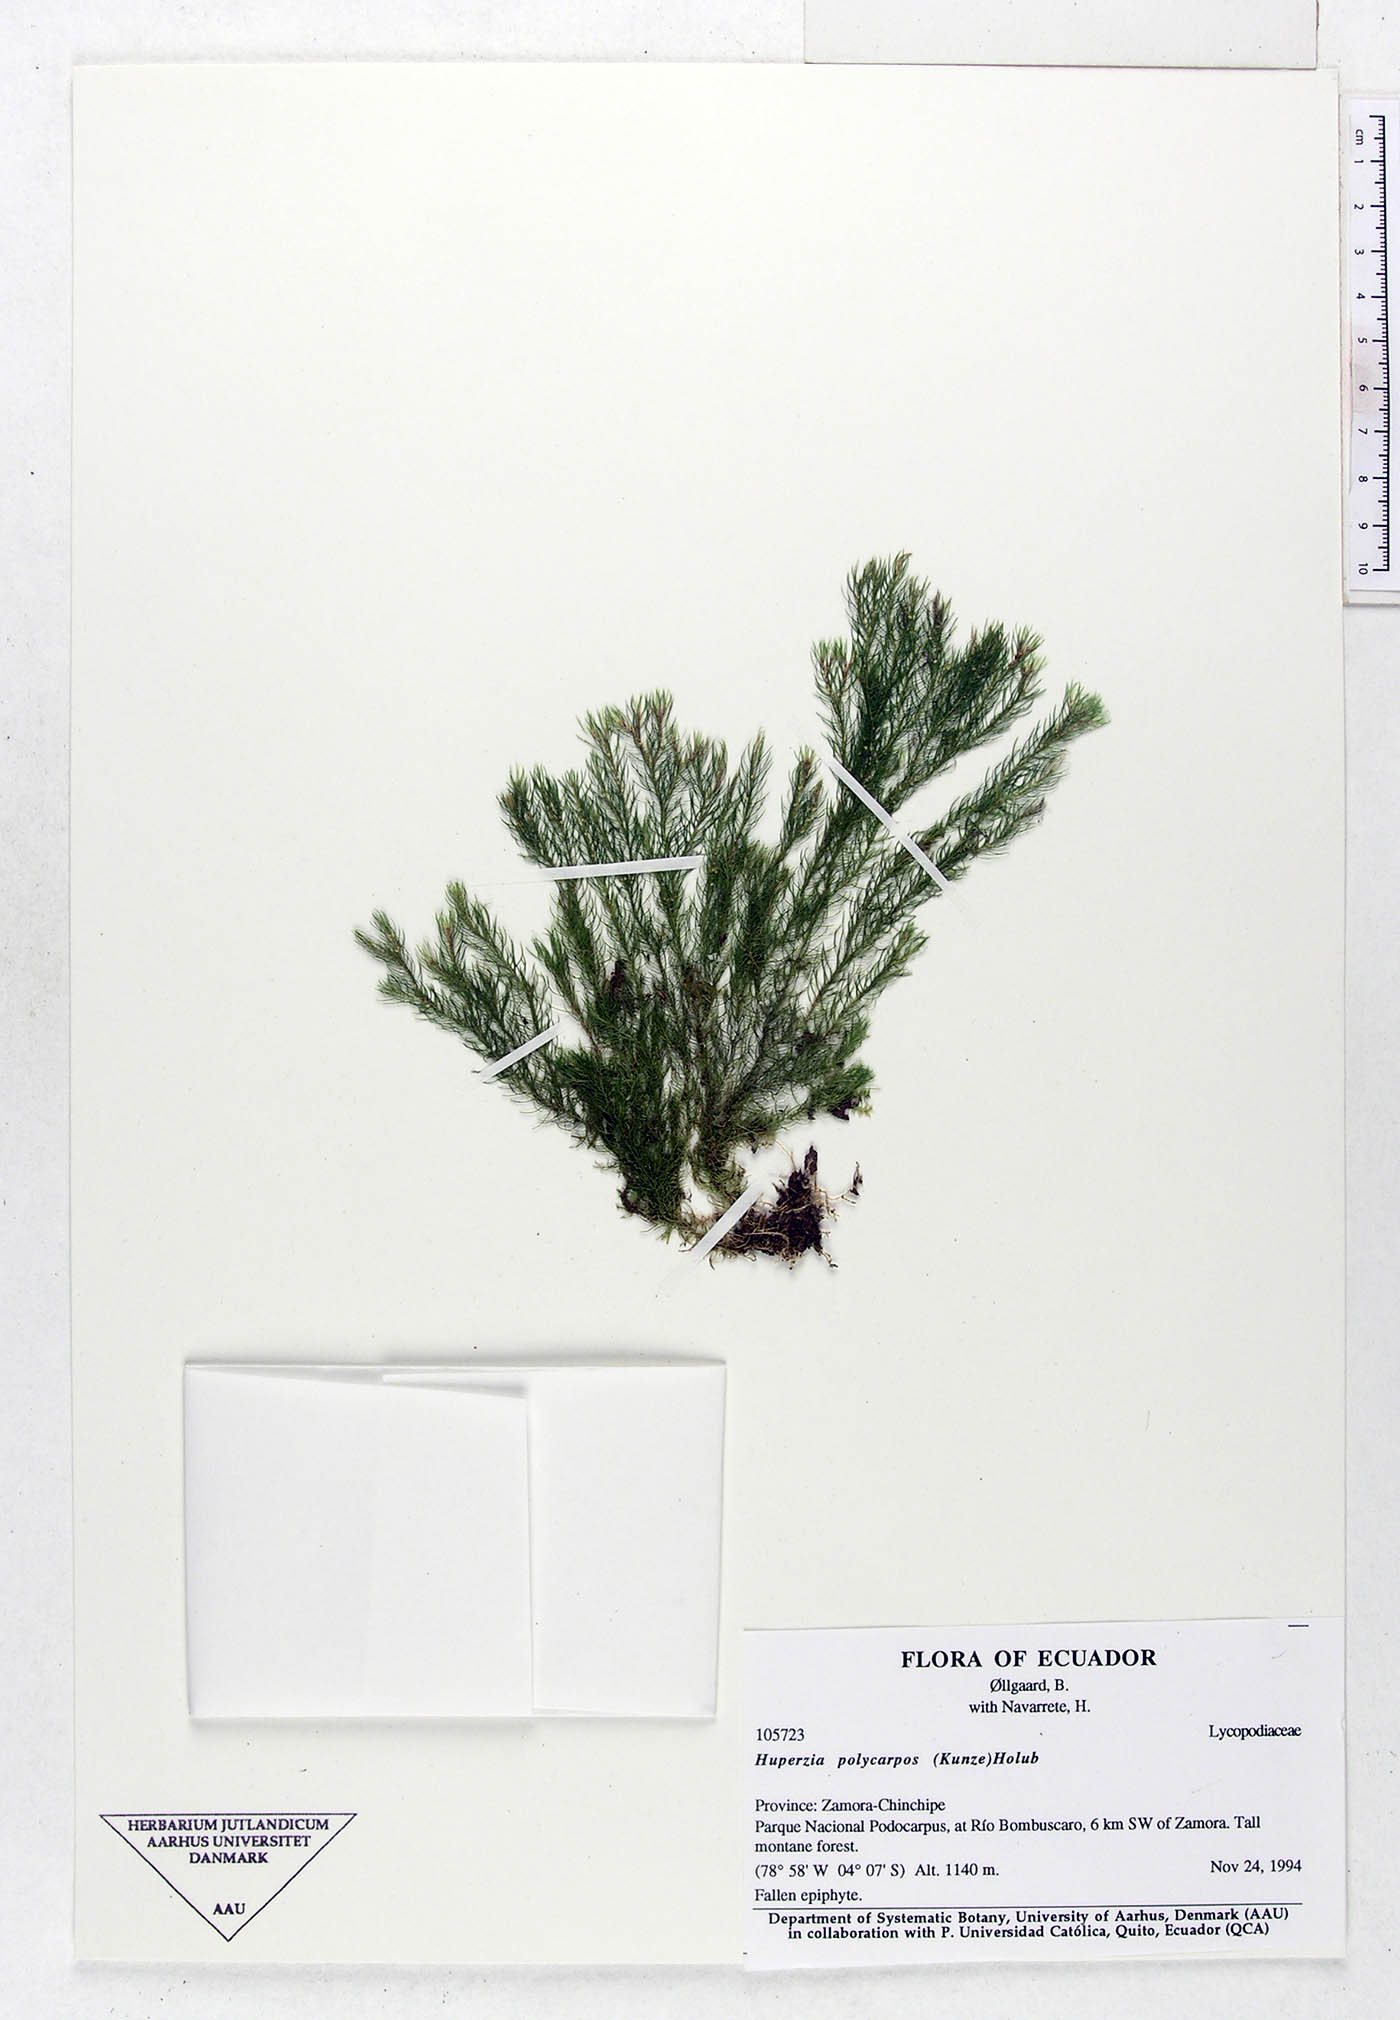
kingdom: Plantae
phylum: Tracheophyta
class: Lycopodiopsida
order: Lycopodiales
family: Lycopodiaceae
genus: Phlegmariurus
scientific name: Phlegmariurus polycarpos
